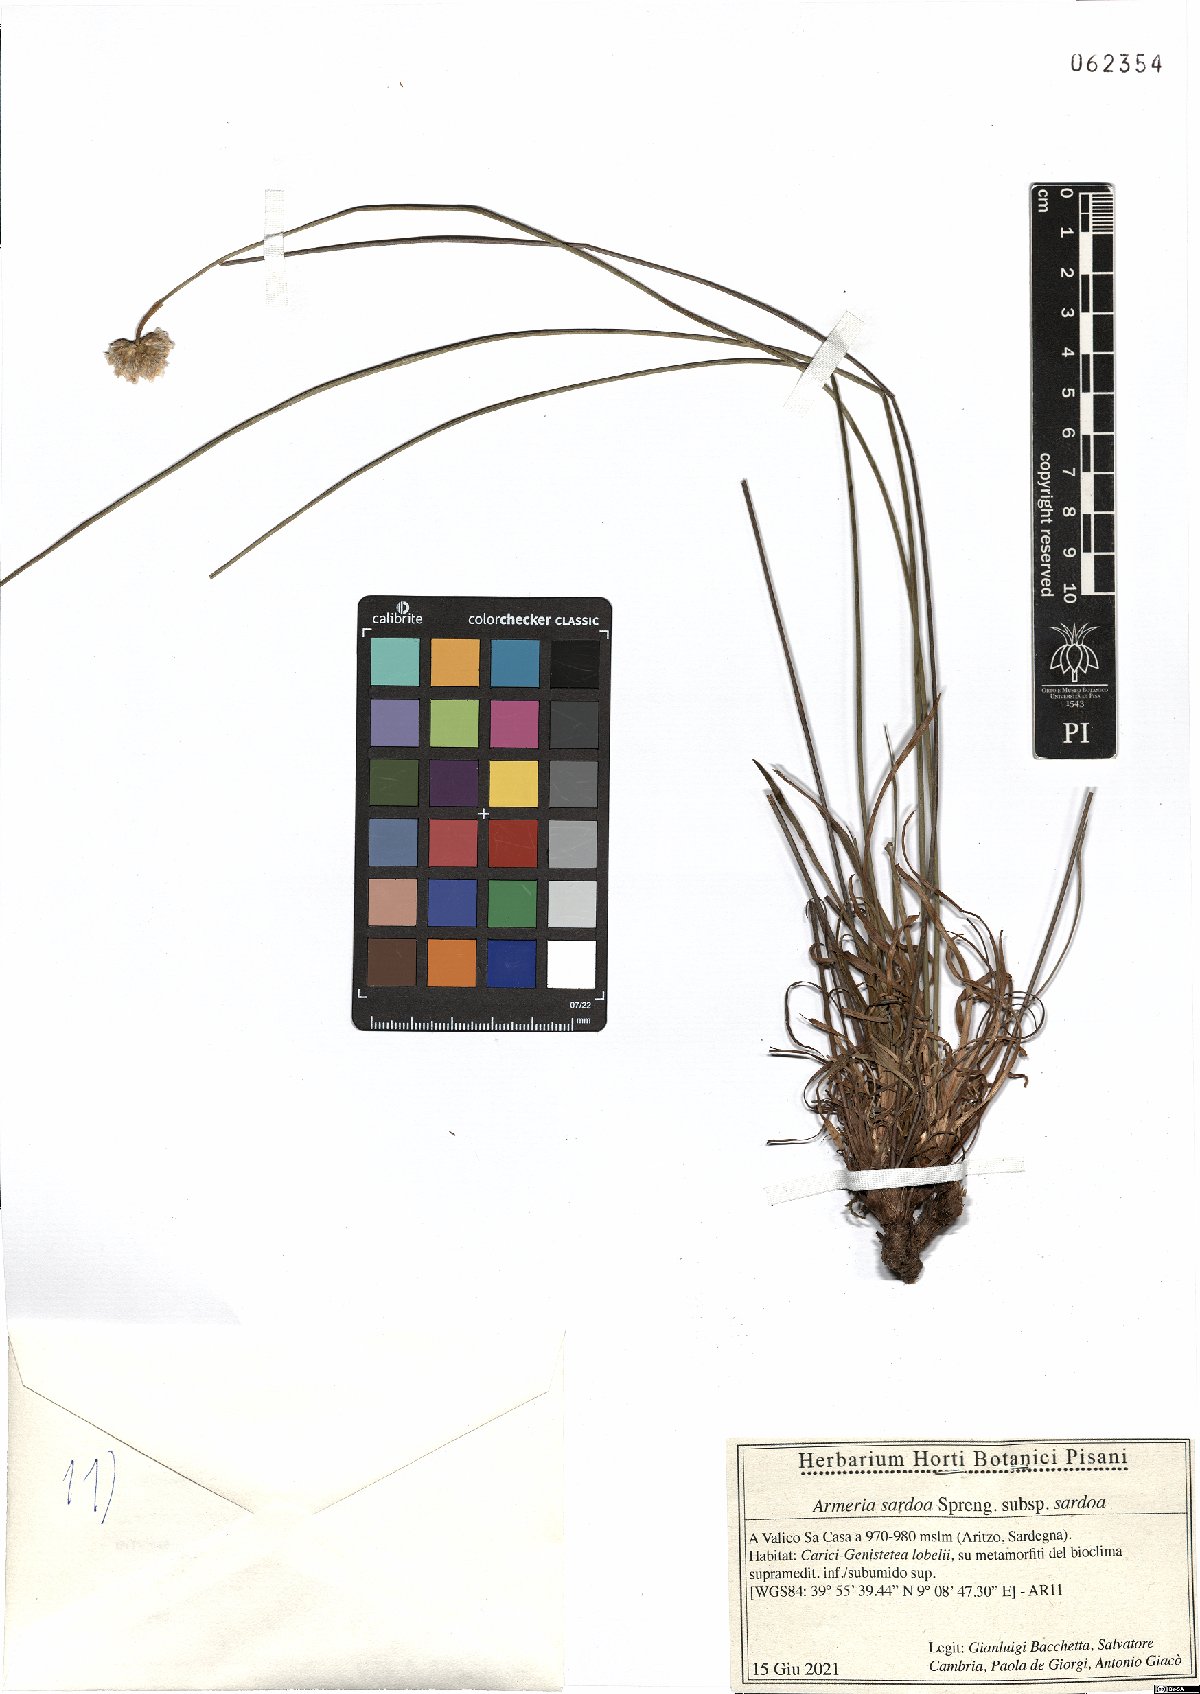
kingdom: Plantae
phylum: Tracheophyta
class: Magnoliopsida
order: Caryophyllales
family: Plumbaginaceae
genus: Armeria
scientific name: Armeria sardoa
